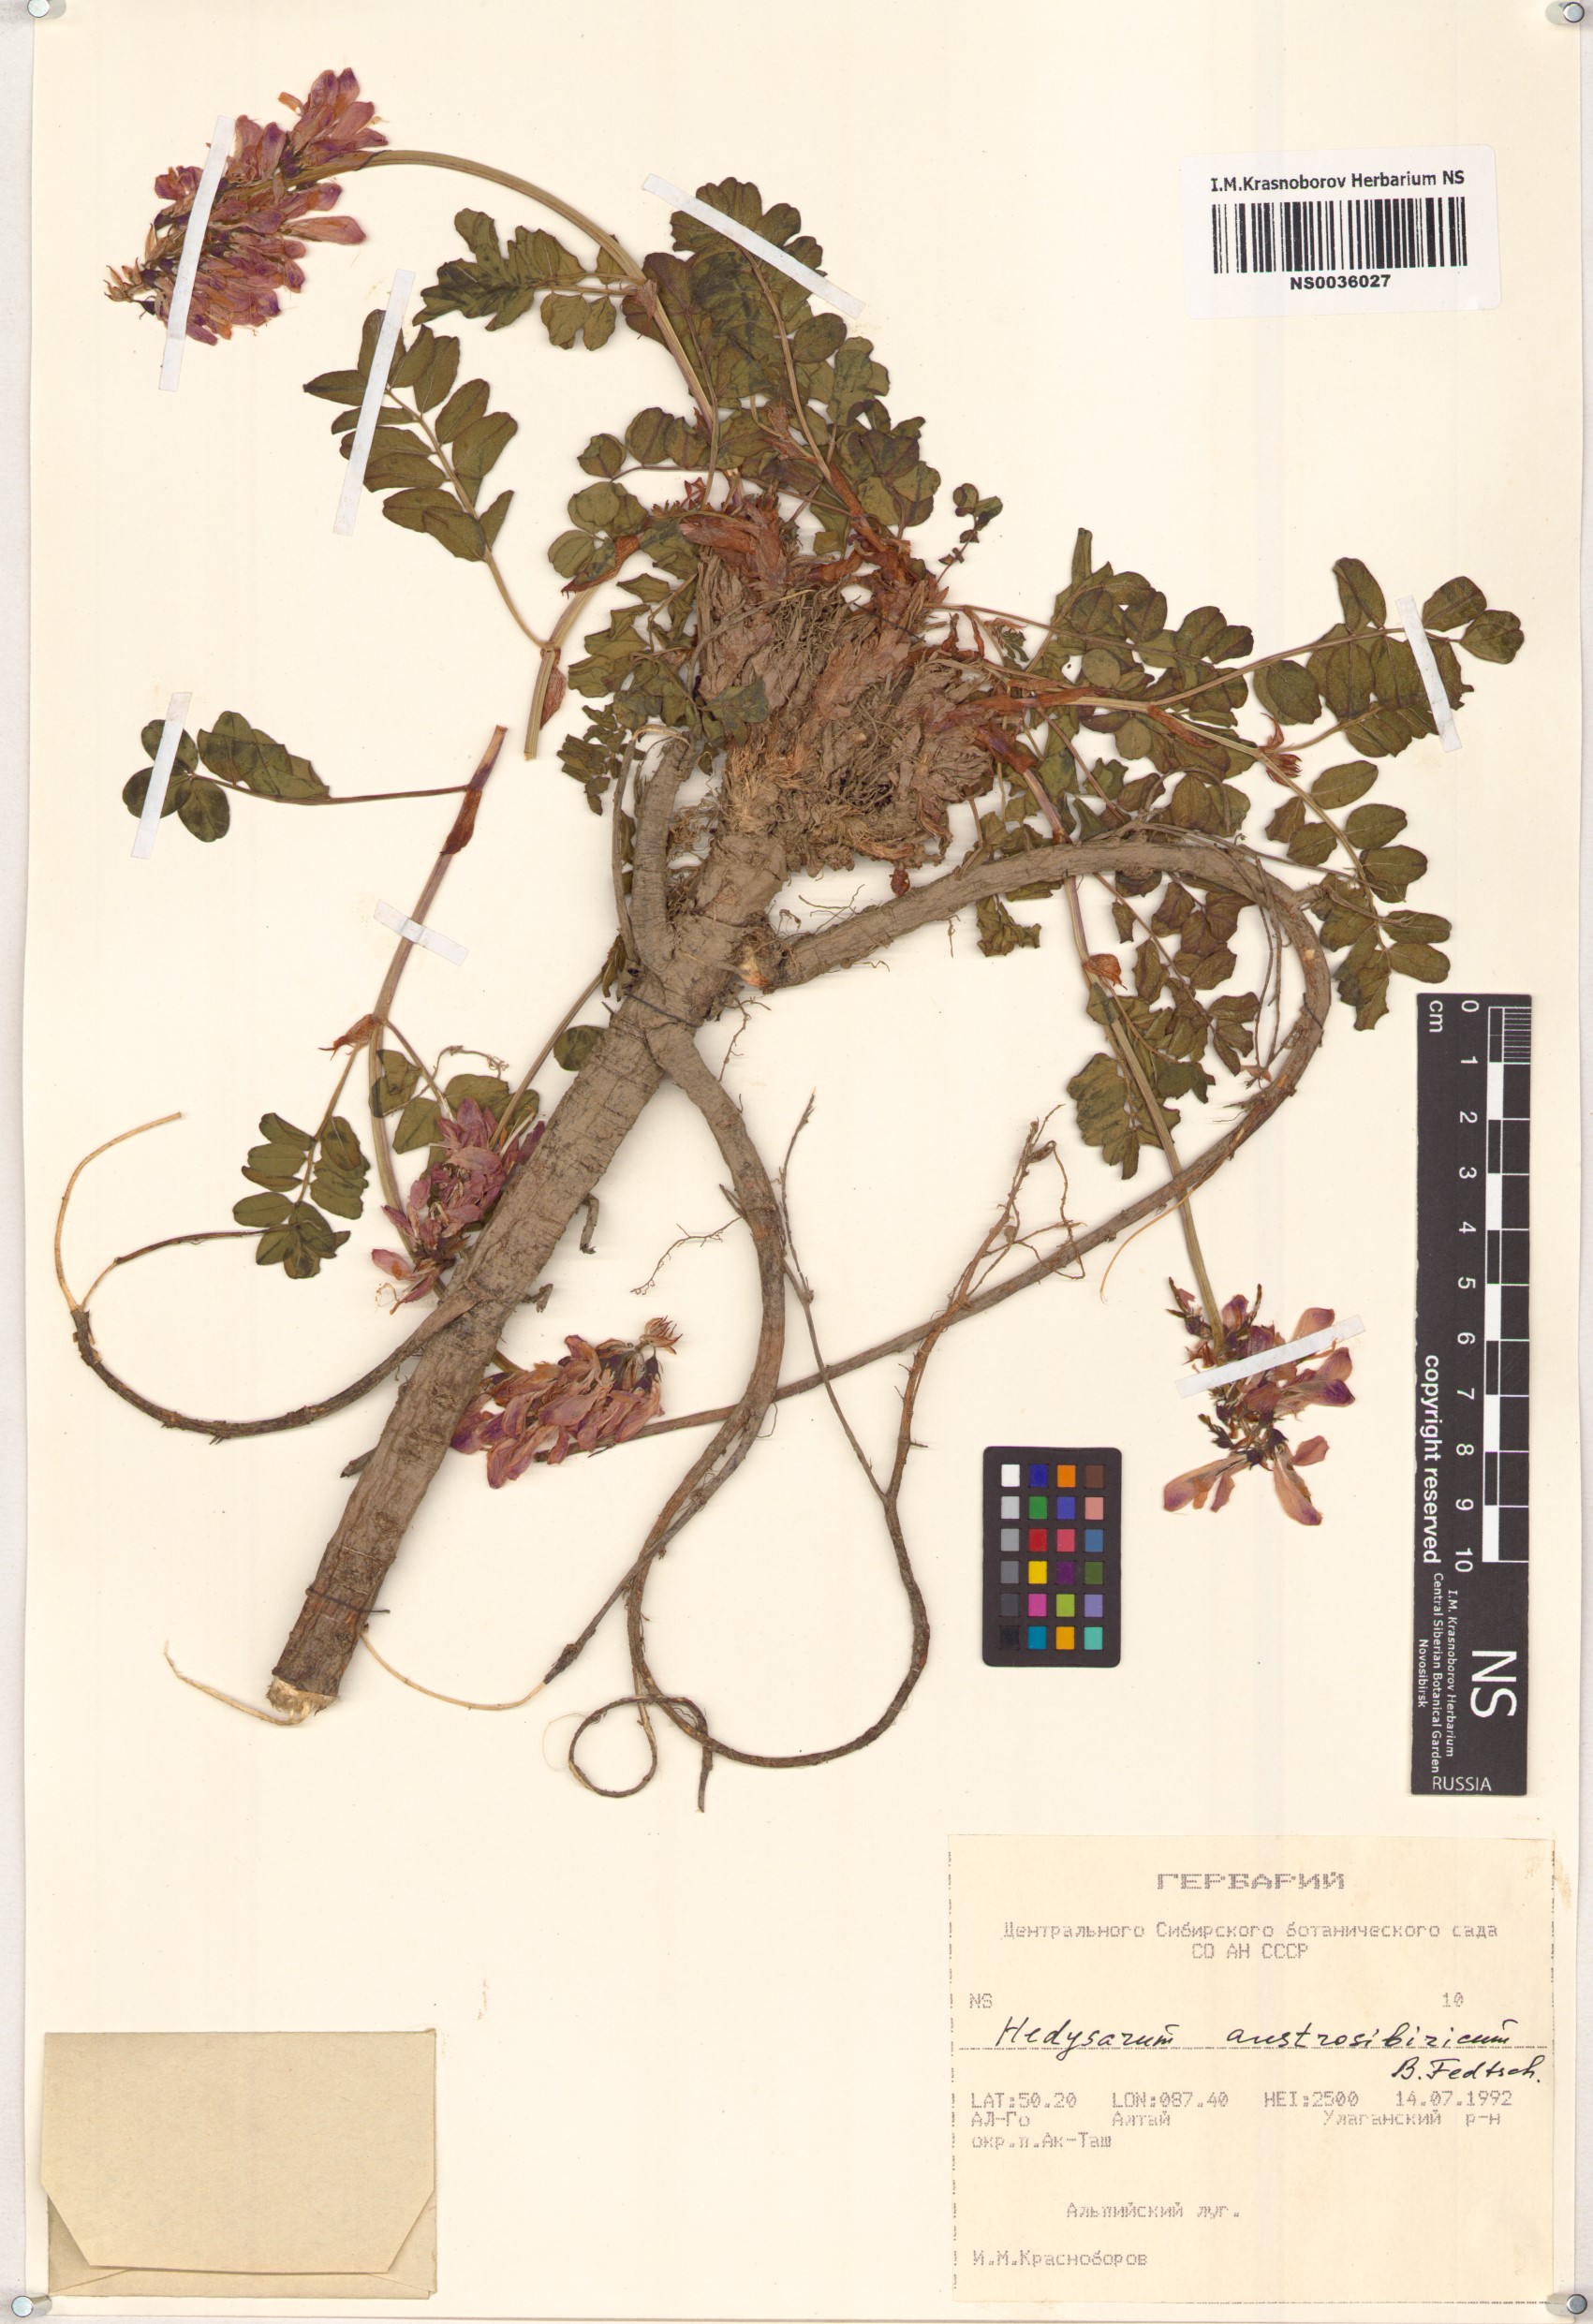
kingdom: Plantae
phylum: Tracheophyta
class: Magnoliopsida
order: Fabales
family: Fabaceae
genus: Hedysarum
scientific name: Hedysarum neglectum
